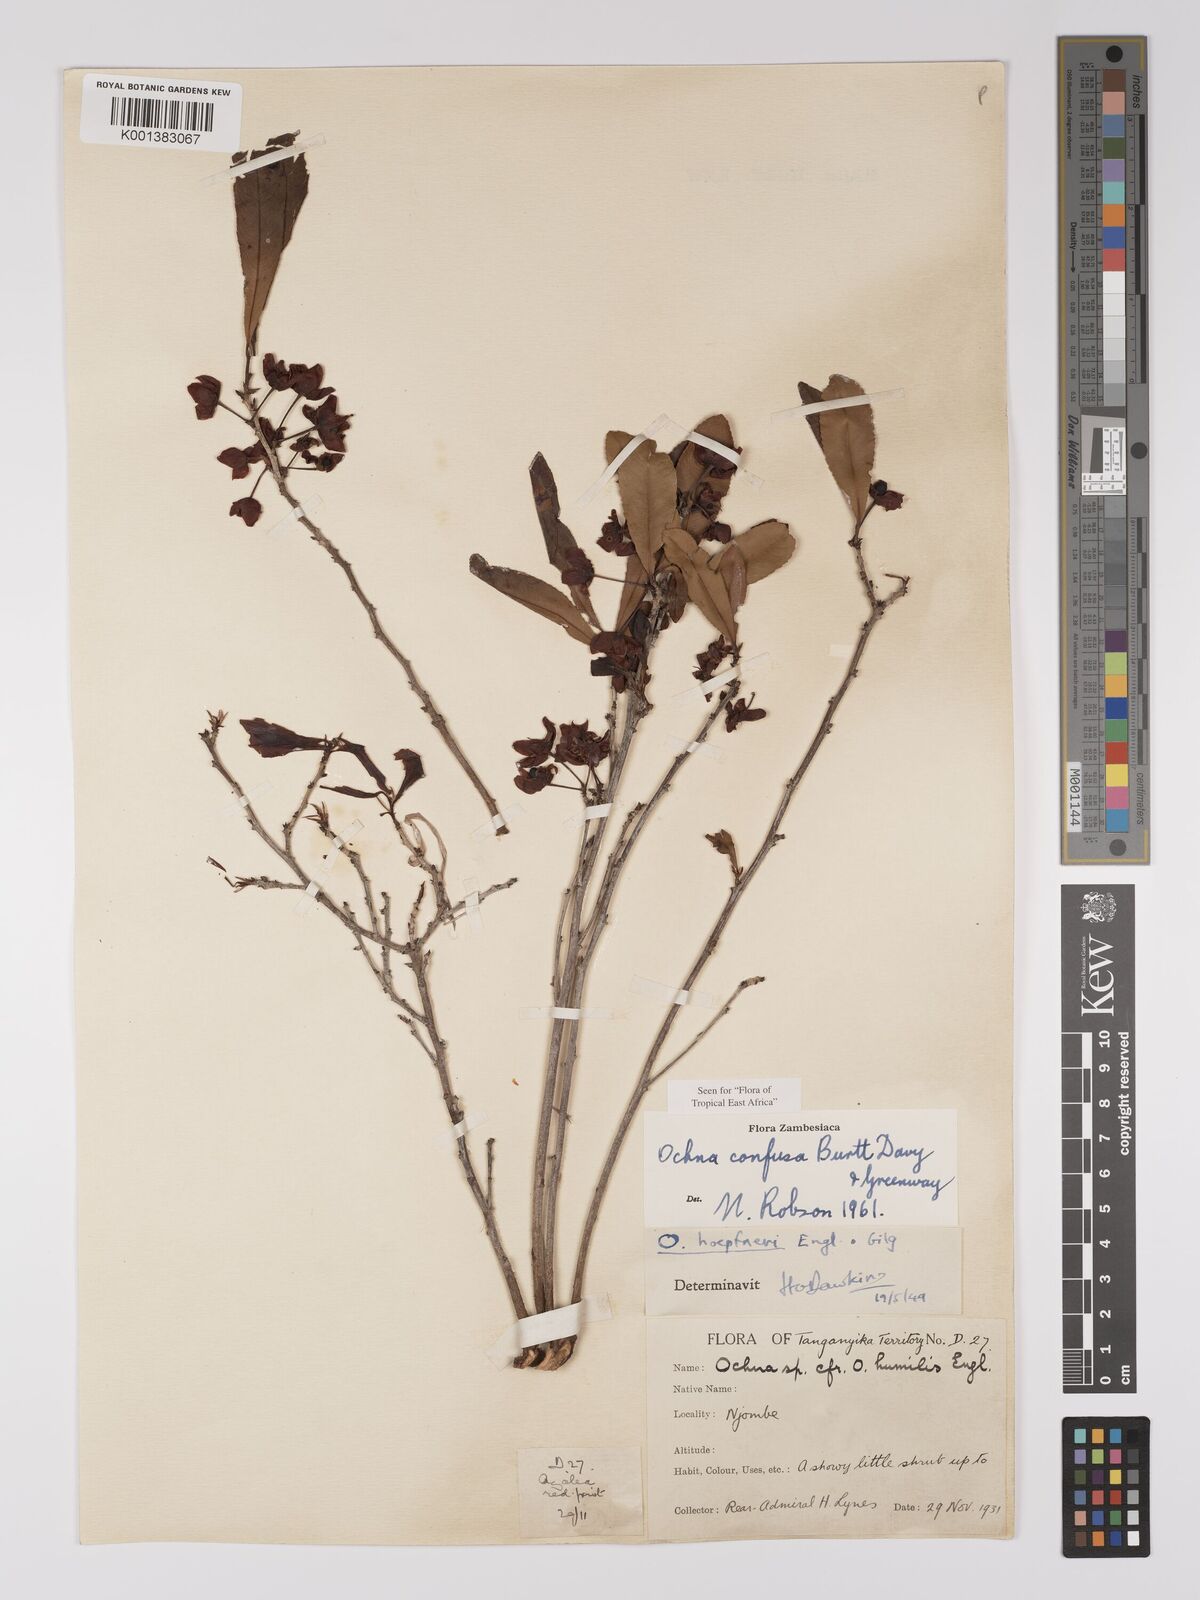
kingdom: Plantae
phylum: Tracheophyta
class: Magnoliopsida
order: Malpighiales
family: Ochnaceae
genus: Ochna
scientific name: Ochna confusa
